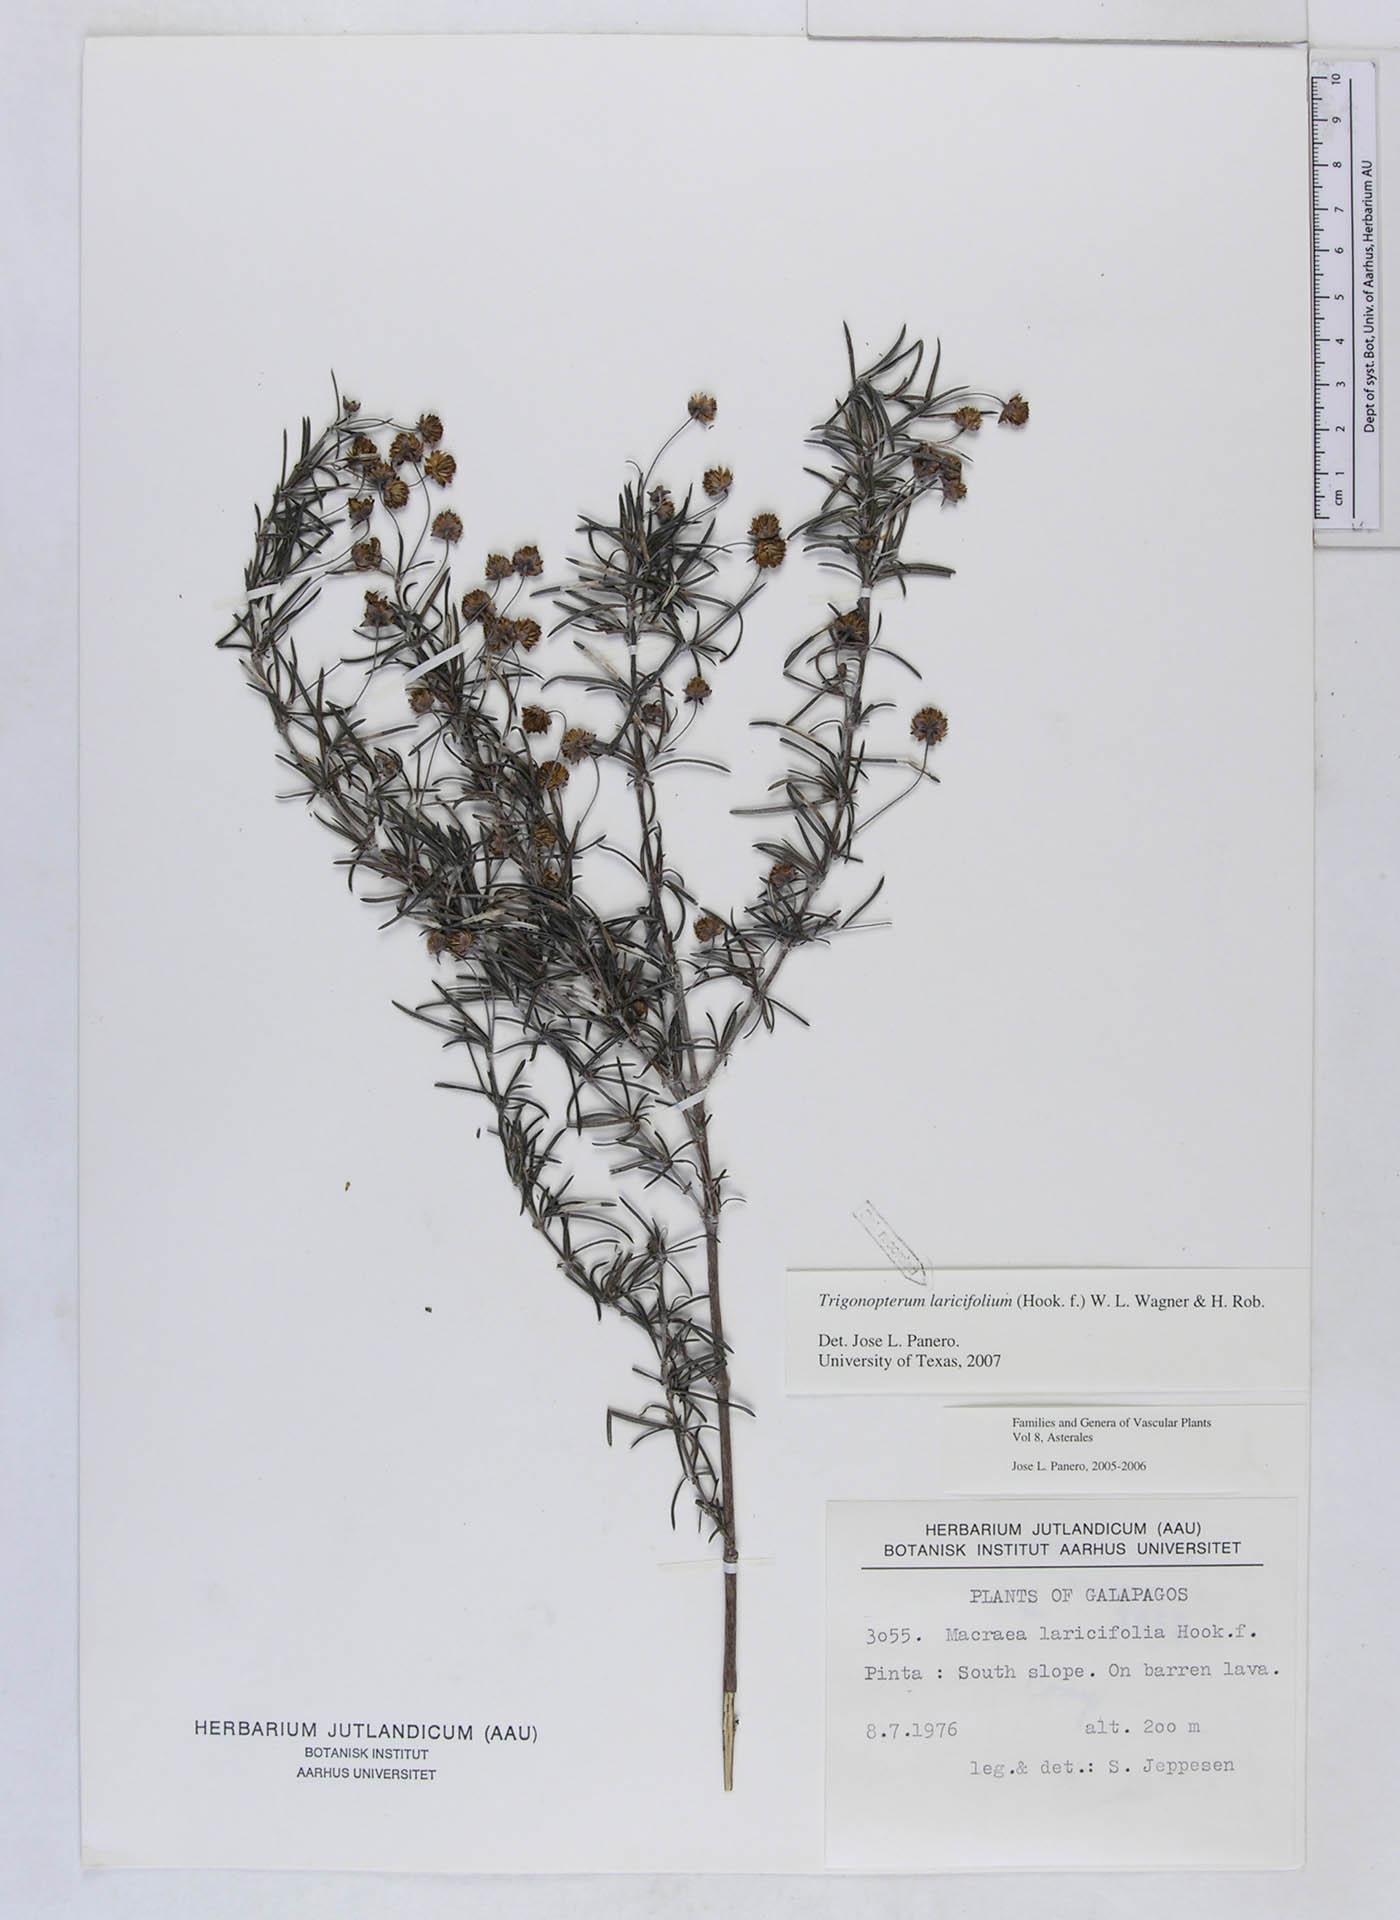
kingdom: Plantae
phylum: Tracheophyta
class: Magnoliopsida
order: Asterales
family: Asteraceae
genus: Trigonopterum
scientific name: Trigonopterum laricifolium
